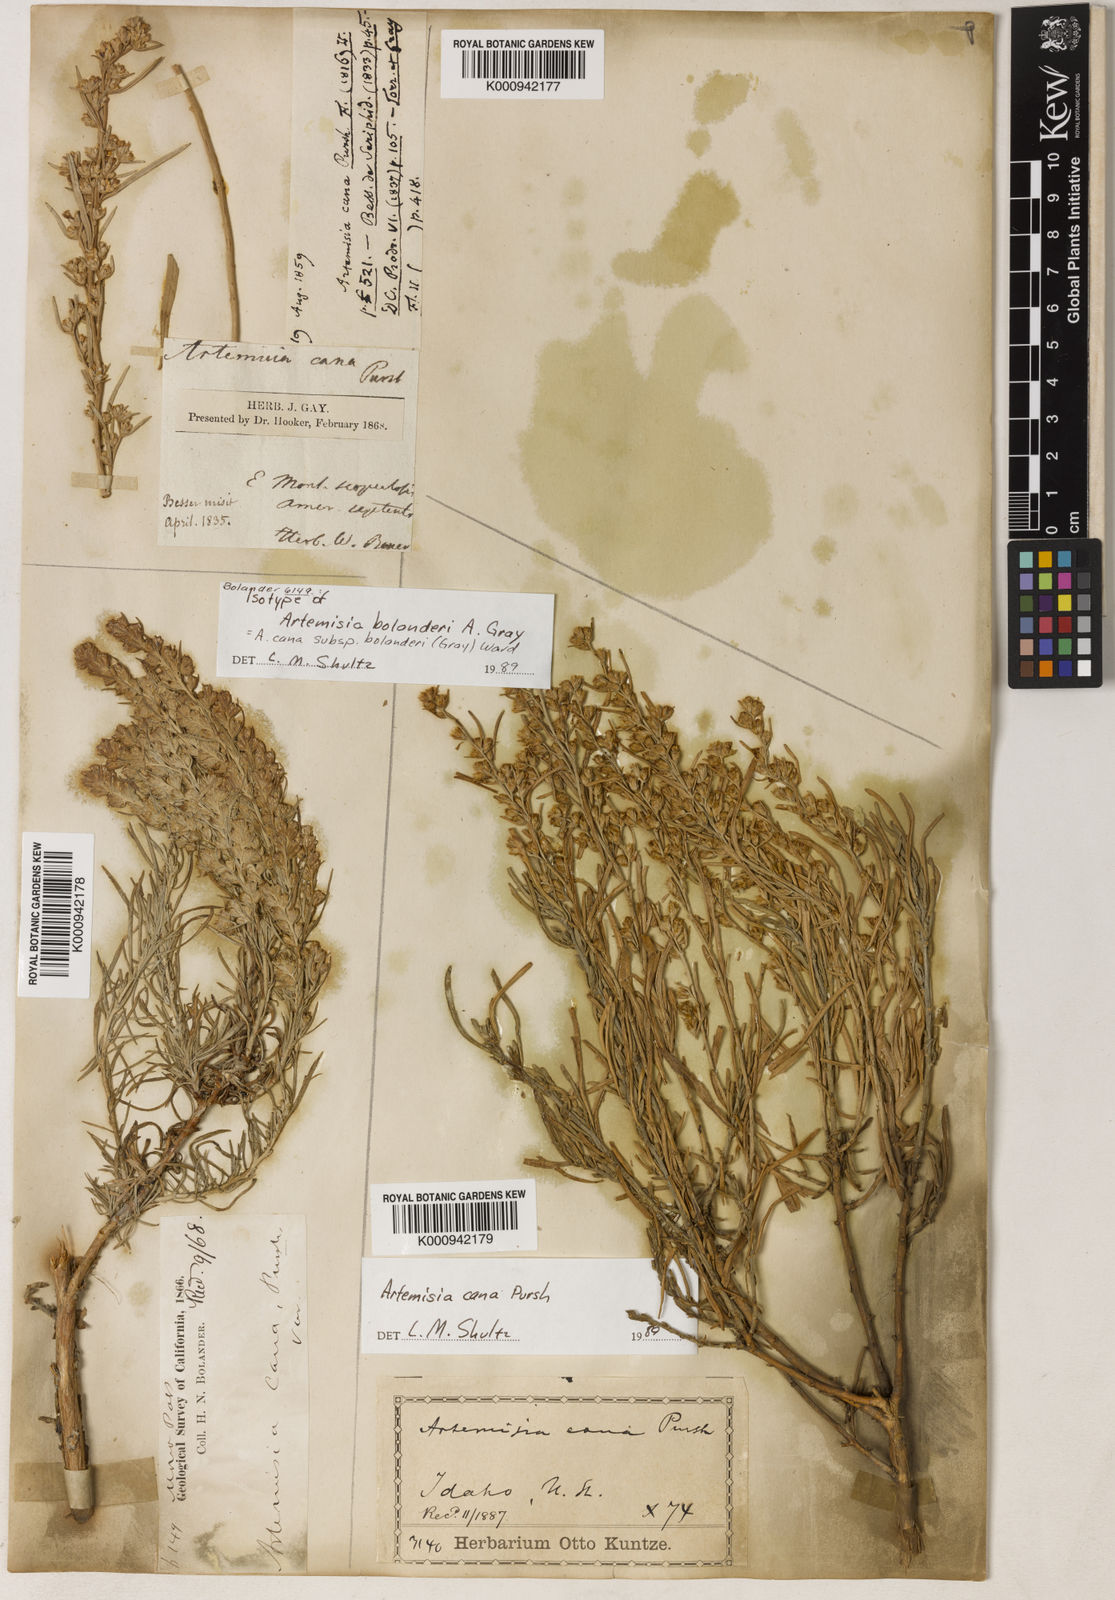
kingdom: Plantae
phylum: Tracheophyta
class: Magnoliopsida
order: Asterales
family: Asteraceae
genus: Artemisia
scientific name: Artemisia cana
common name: Silver sagebrush
